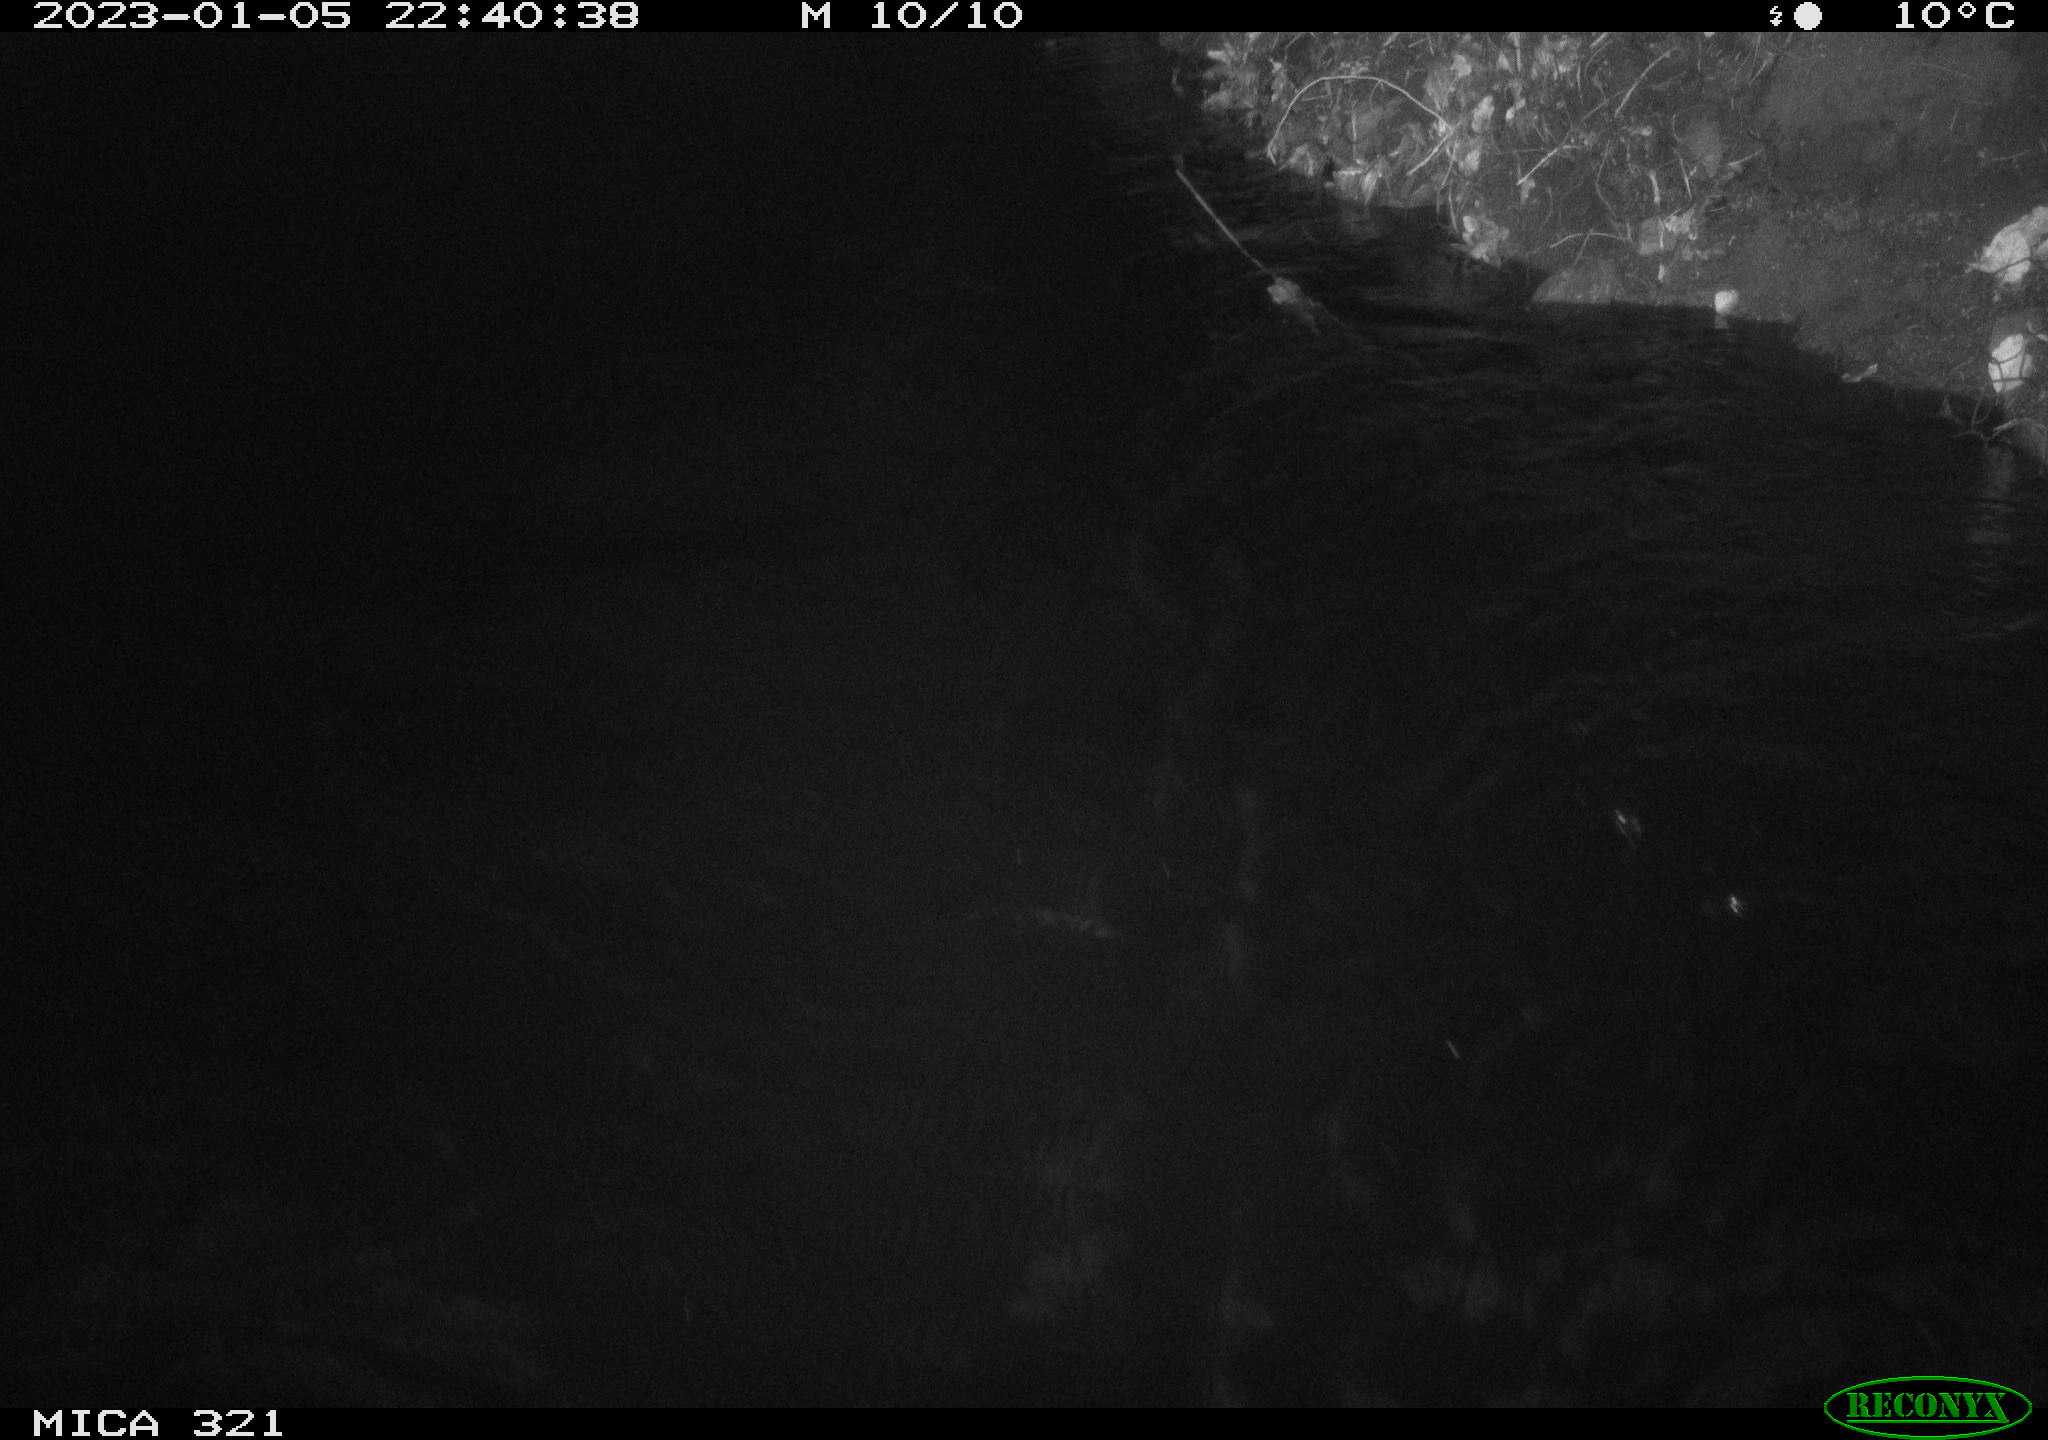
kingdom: Animalia
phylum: Chordata
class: Aves
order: Anseriformes
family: Anatidae
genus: Anas
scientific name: Anas
